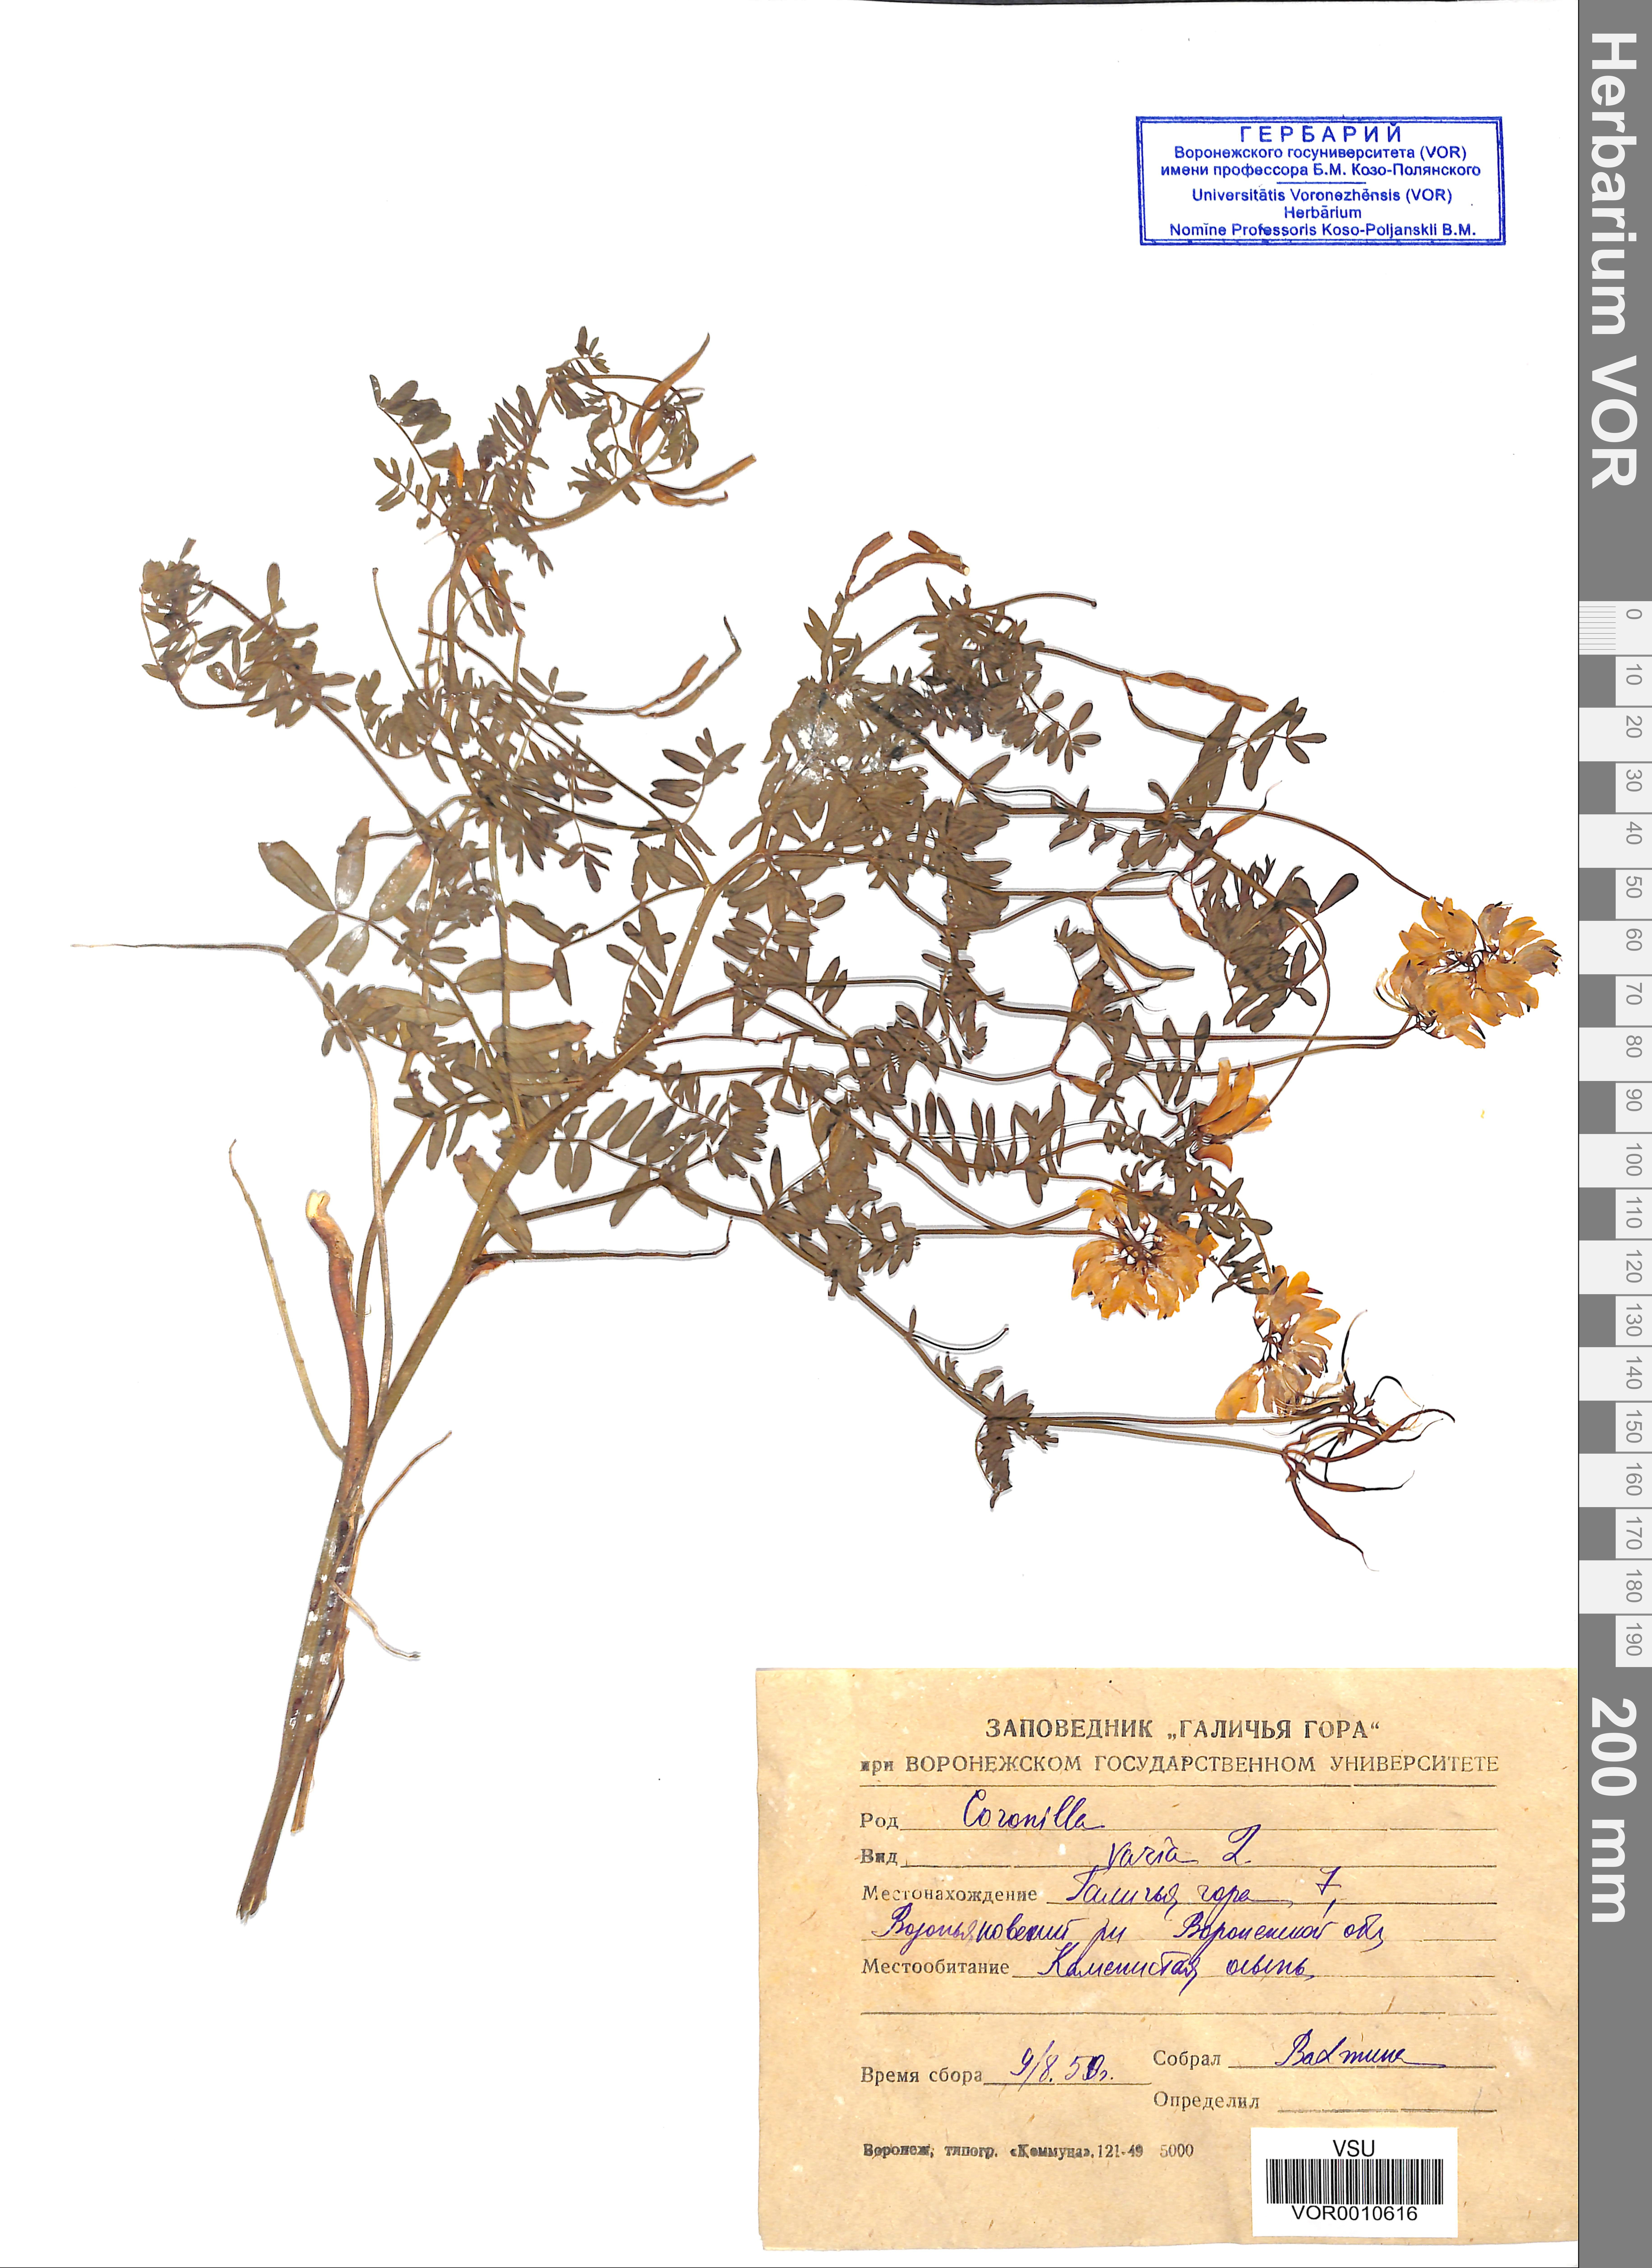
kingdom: Plantae
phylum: Tracheophyta
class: Magnoliopsida
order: Fabales
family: Fabaceae
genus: Coronilla
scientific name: Coronilla varia
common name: Crownvetch
